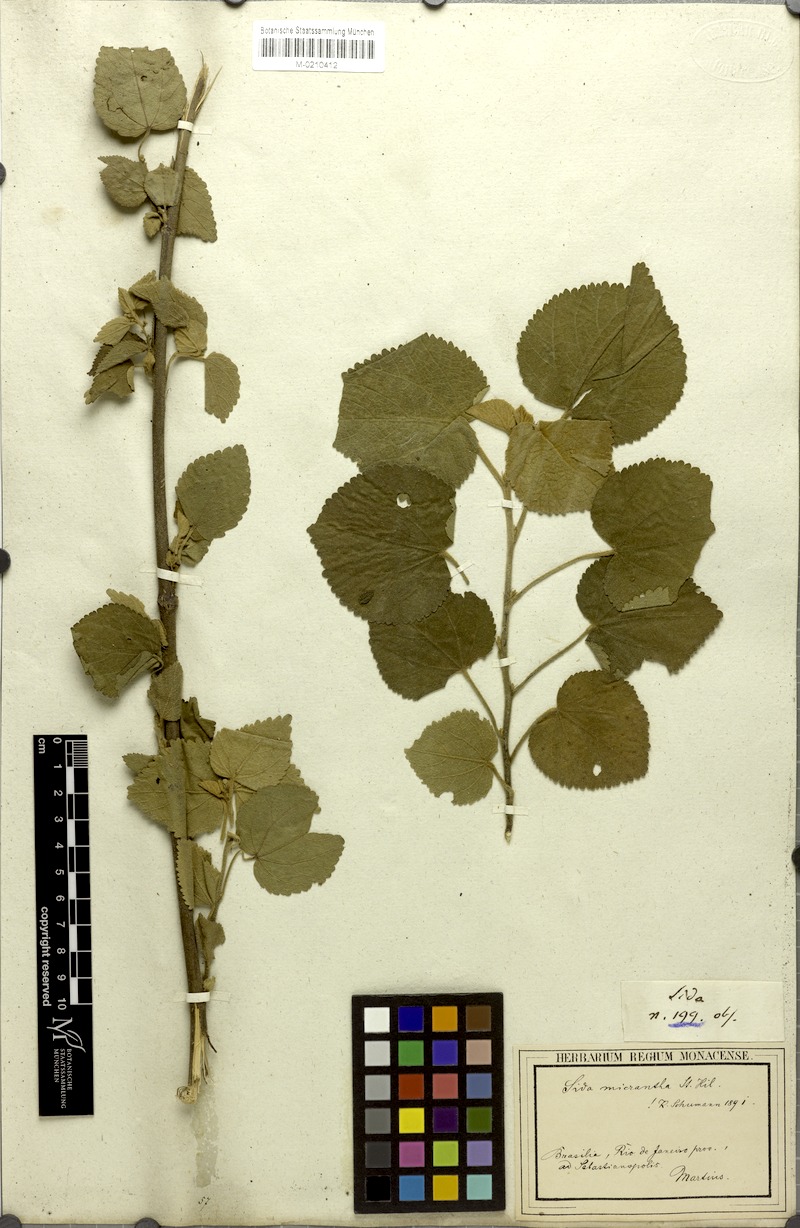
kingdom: Plantae
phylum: Tracheophyta
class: Magnoliopsida
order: Malvales
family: Malvaceae
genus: Sidastrum
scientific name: Sidastrum micranthum
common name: Dainty sandmallow
